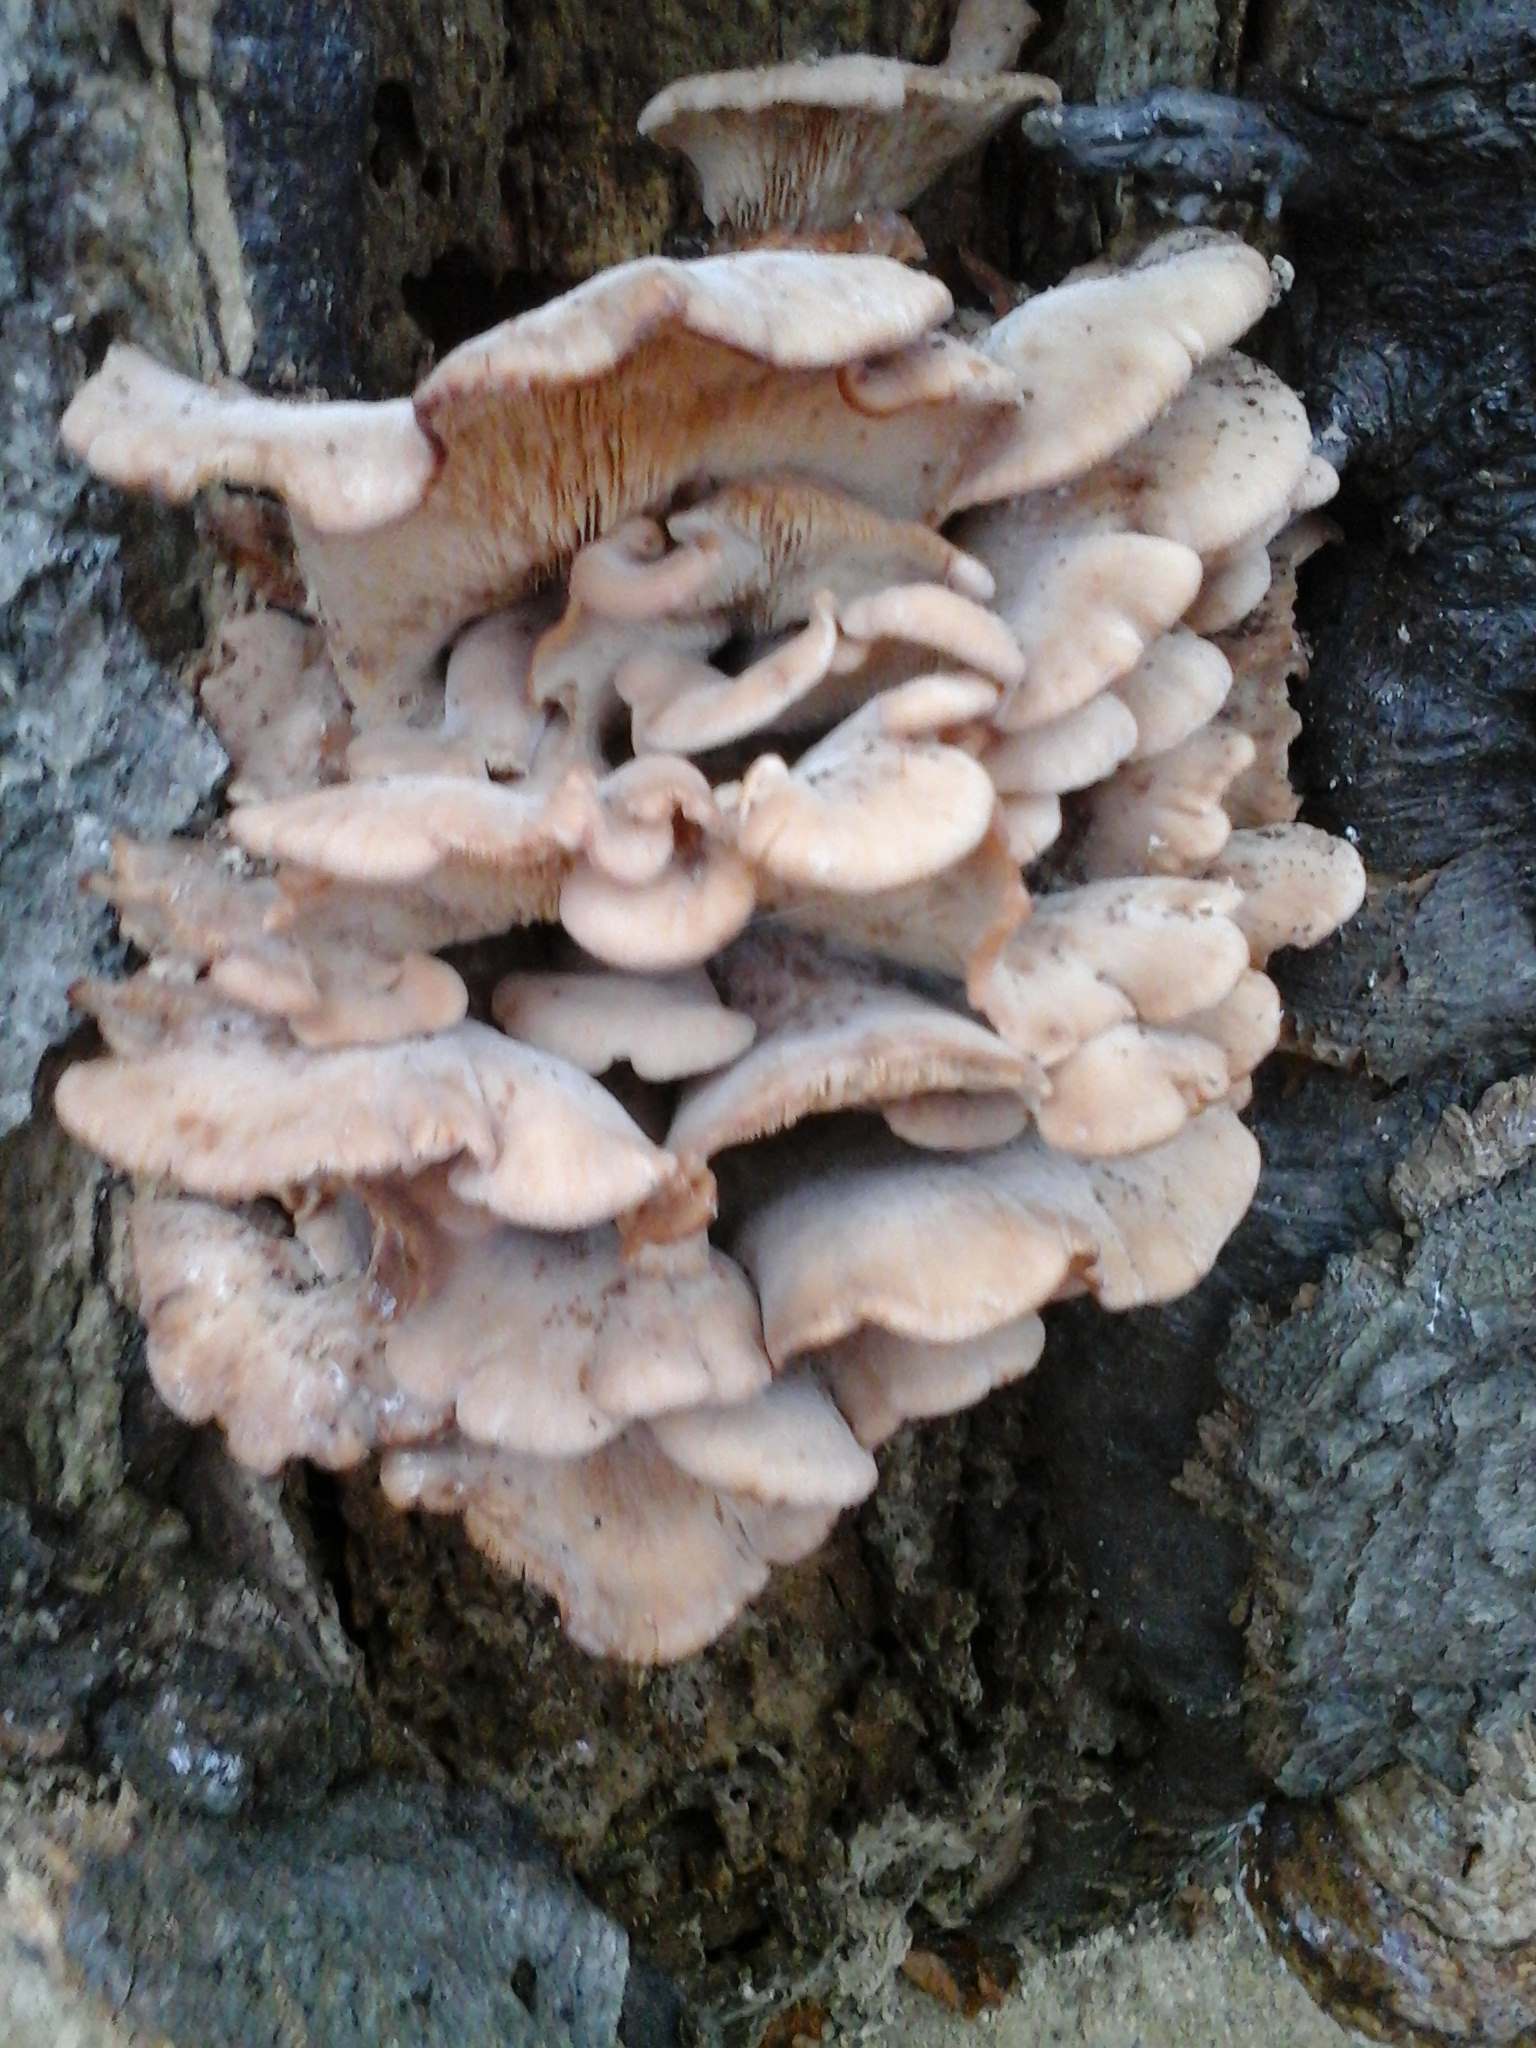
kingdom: Fungi
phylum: Basidiomycota
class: Agaricomycetes
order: Russulales
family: Auriscalpiaceae
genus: Lentinellus
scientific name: Lentinellus ursinus
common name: børstehåret savbladhat
